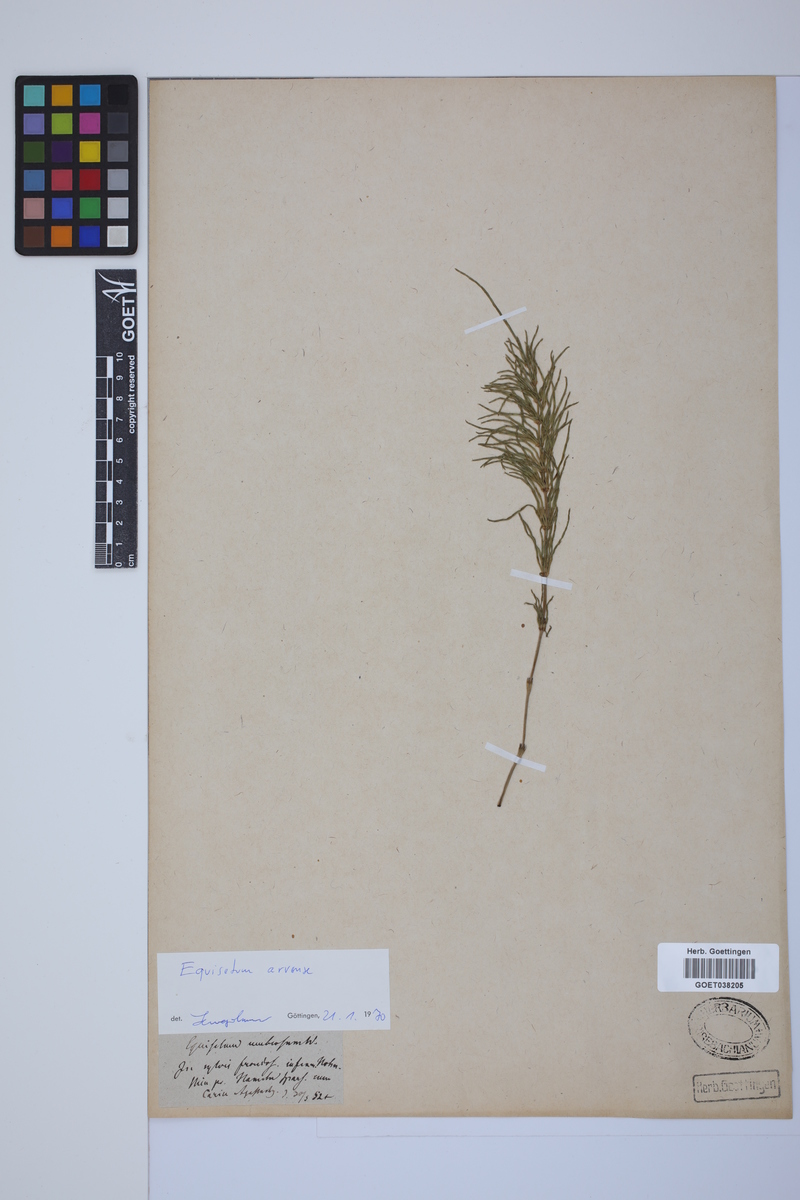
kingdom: Plantae
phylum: Tracheophyta
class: Polypodiopsida
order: Equisetales
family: Equisetaceae
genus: Equisetum
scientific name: Equisetum arvense
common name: Field horsetail
